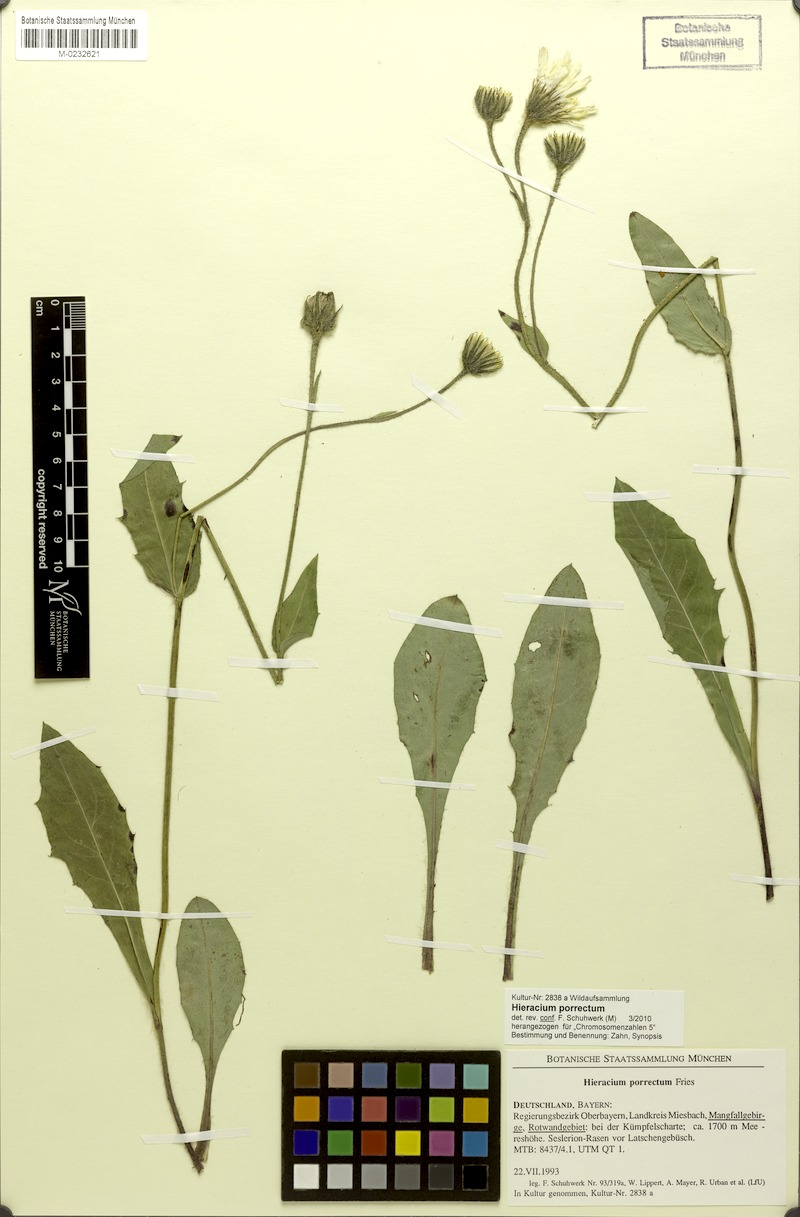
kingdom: Plantae
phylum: Tracheophyta
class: Magnoliopsida
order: Asterales
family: Asteraceae
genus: Hieracium
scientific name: Hieracium porrectum
